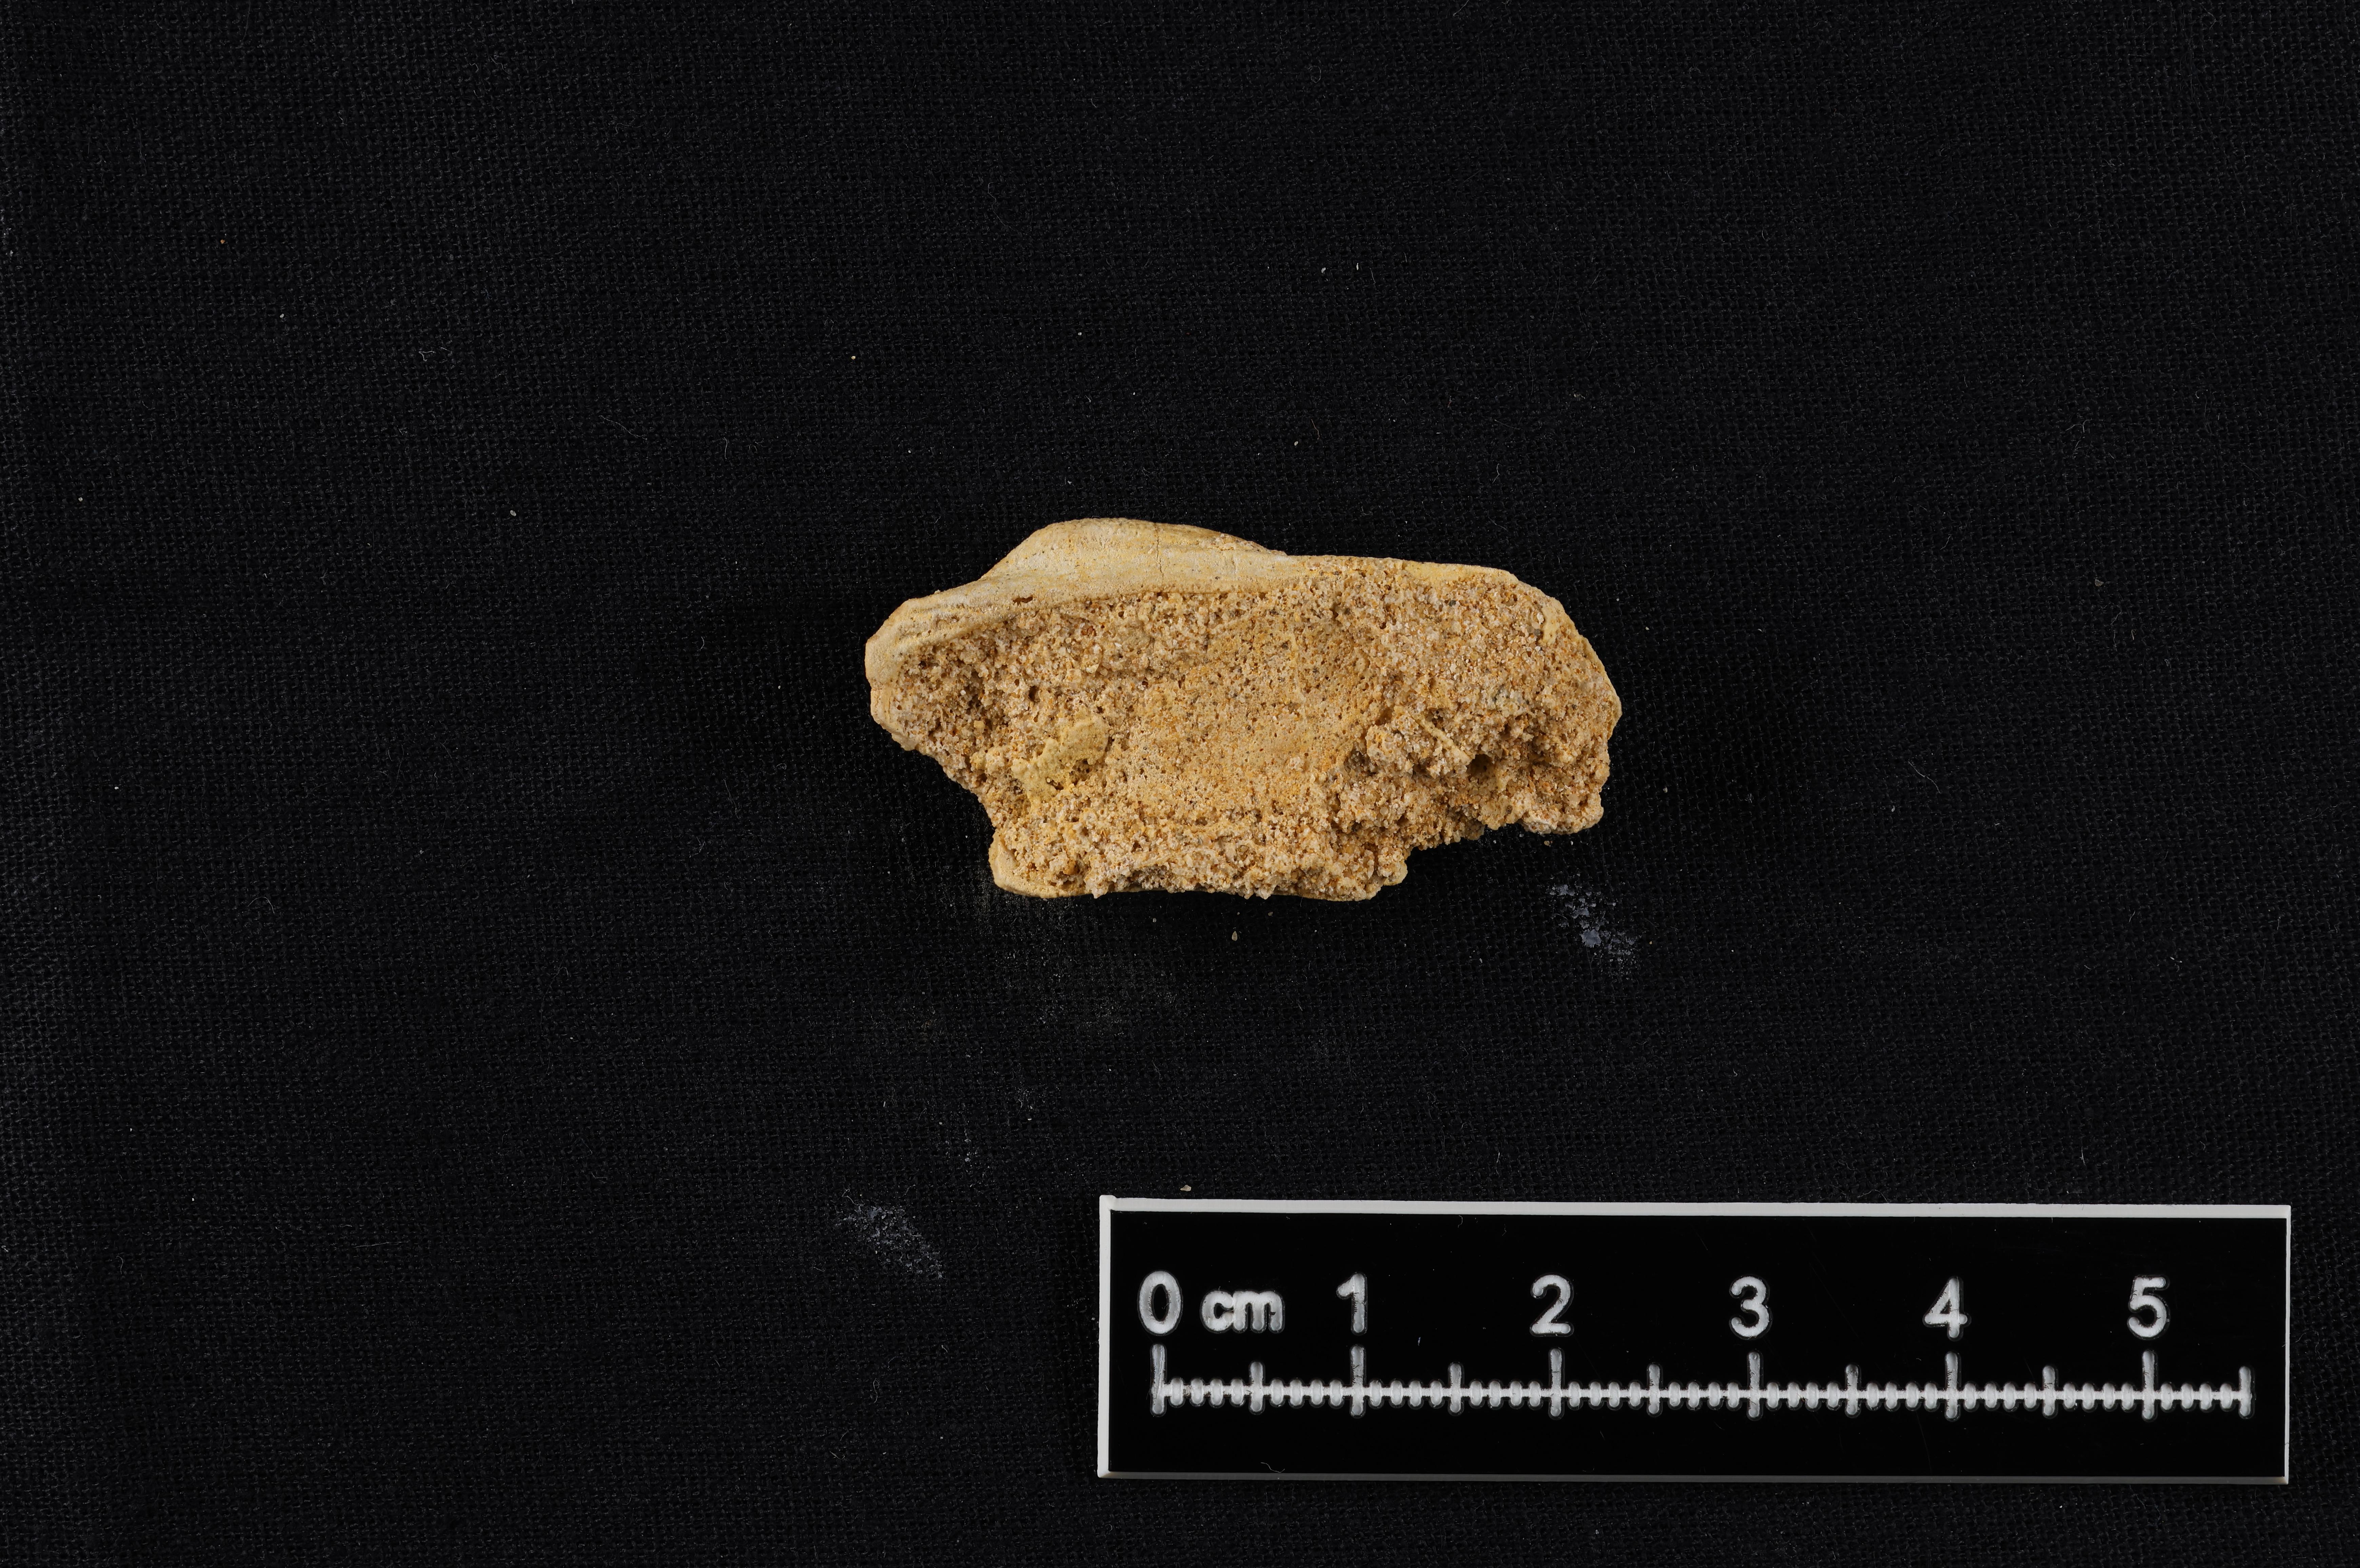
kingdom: Animalia
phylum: Mollusca
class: Bivalvia
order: Arcida
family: Cucullaeidae
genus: Idonearca
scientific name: Idonearca
